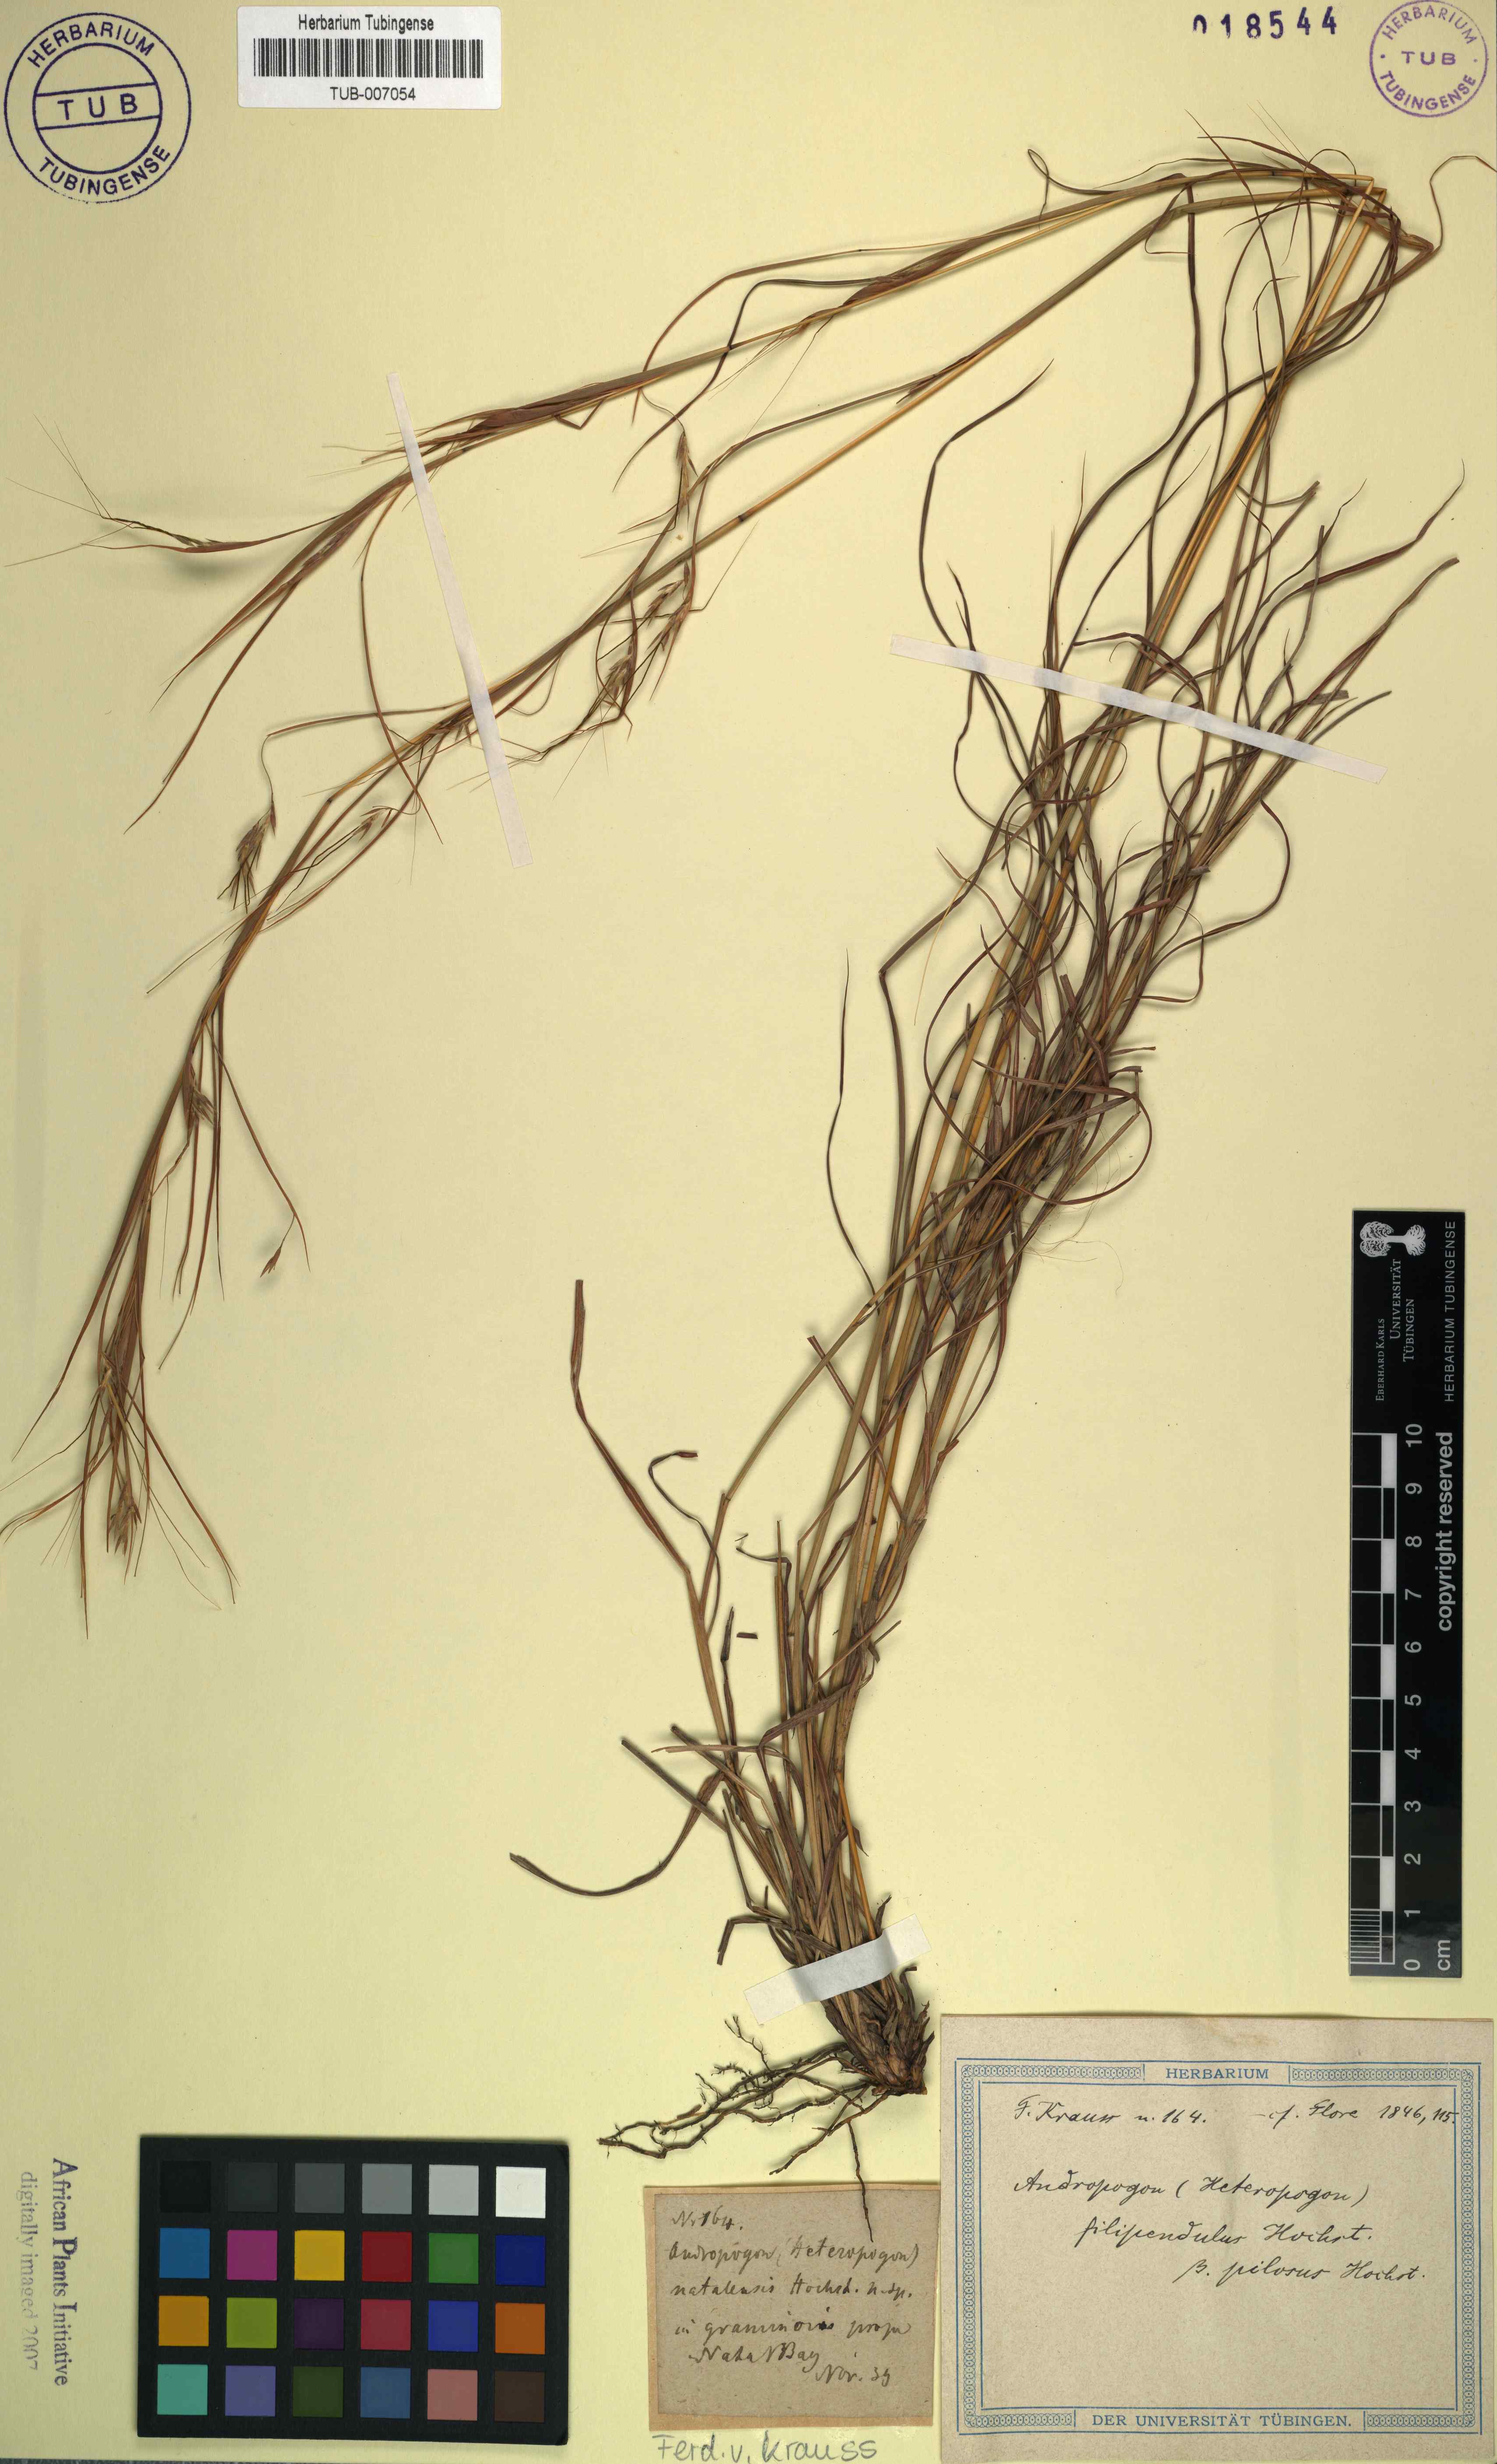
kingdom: Plantae
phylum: Tracheophyta
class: Liliopsida
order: Poales
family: Poaceae
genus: Andropogon
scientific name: Andropogon
